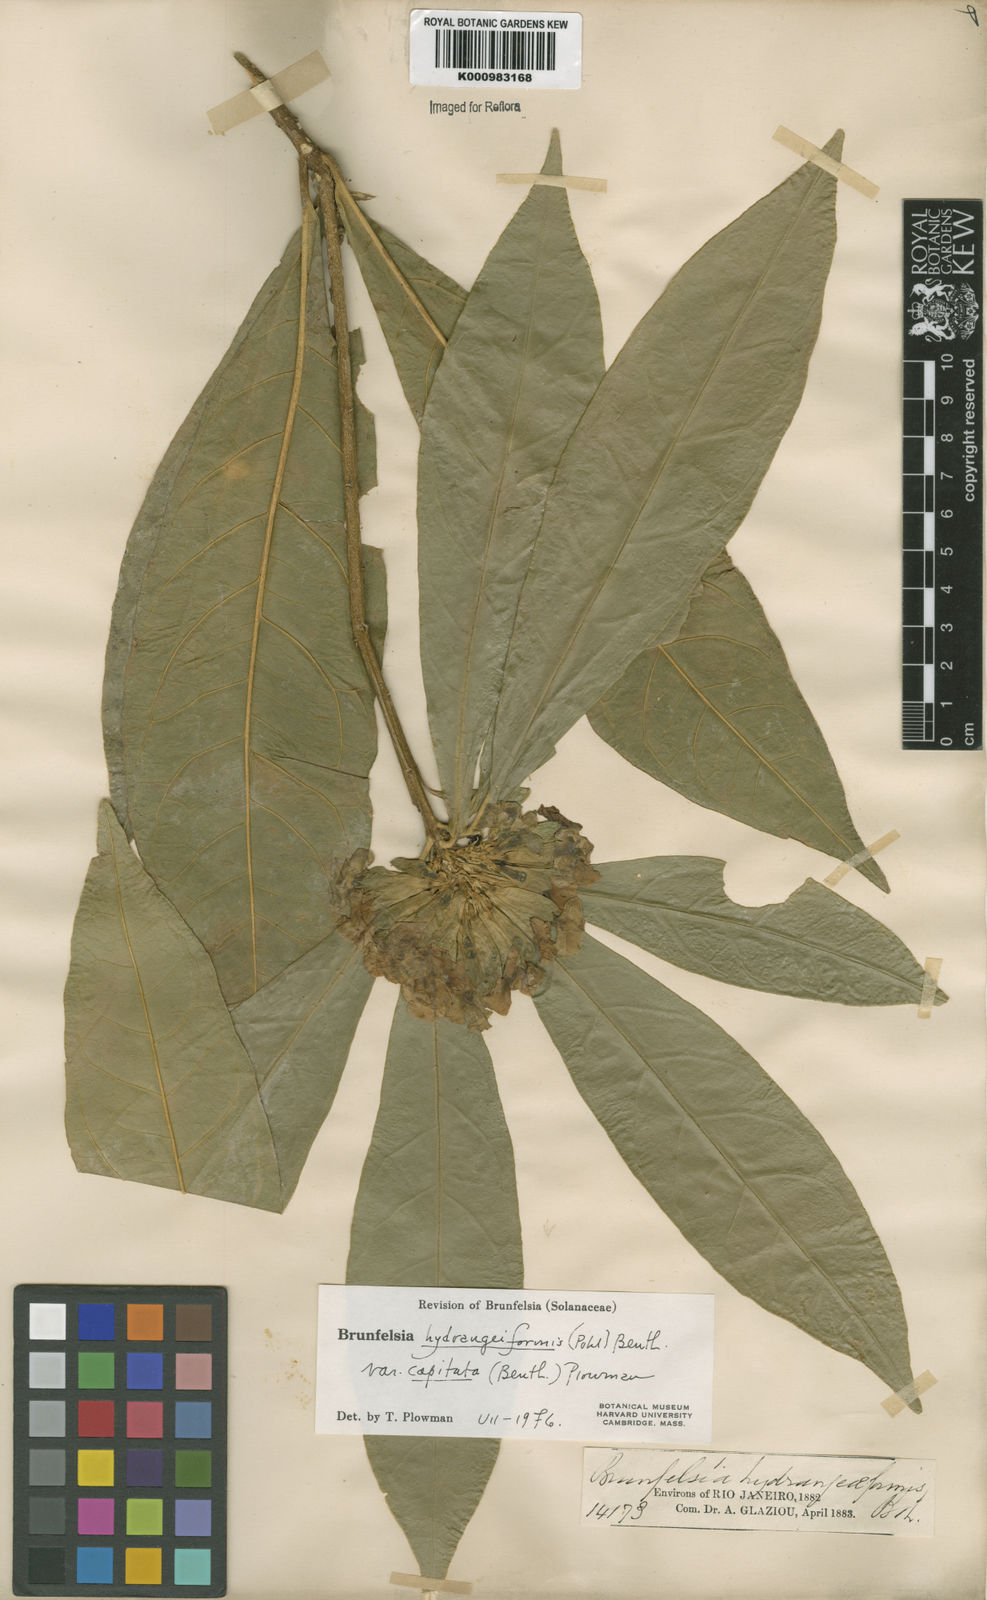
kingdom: Plantae
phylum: Tracheophyta
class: Magnoliopsida
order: Solanales
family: Solanaceae
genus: Solanum
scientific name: Solanum
